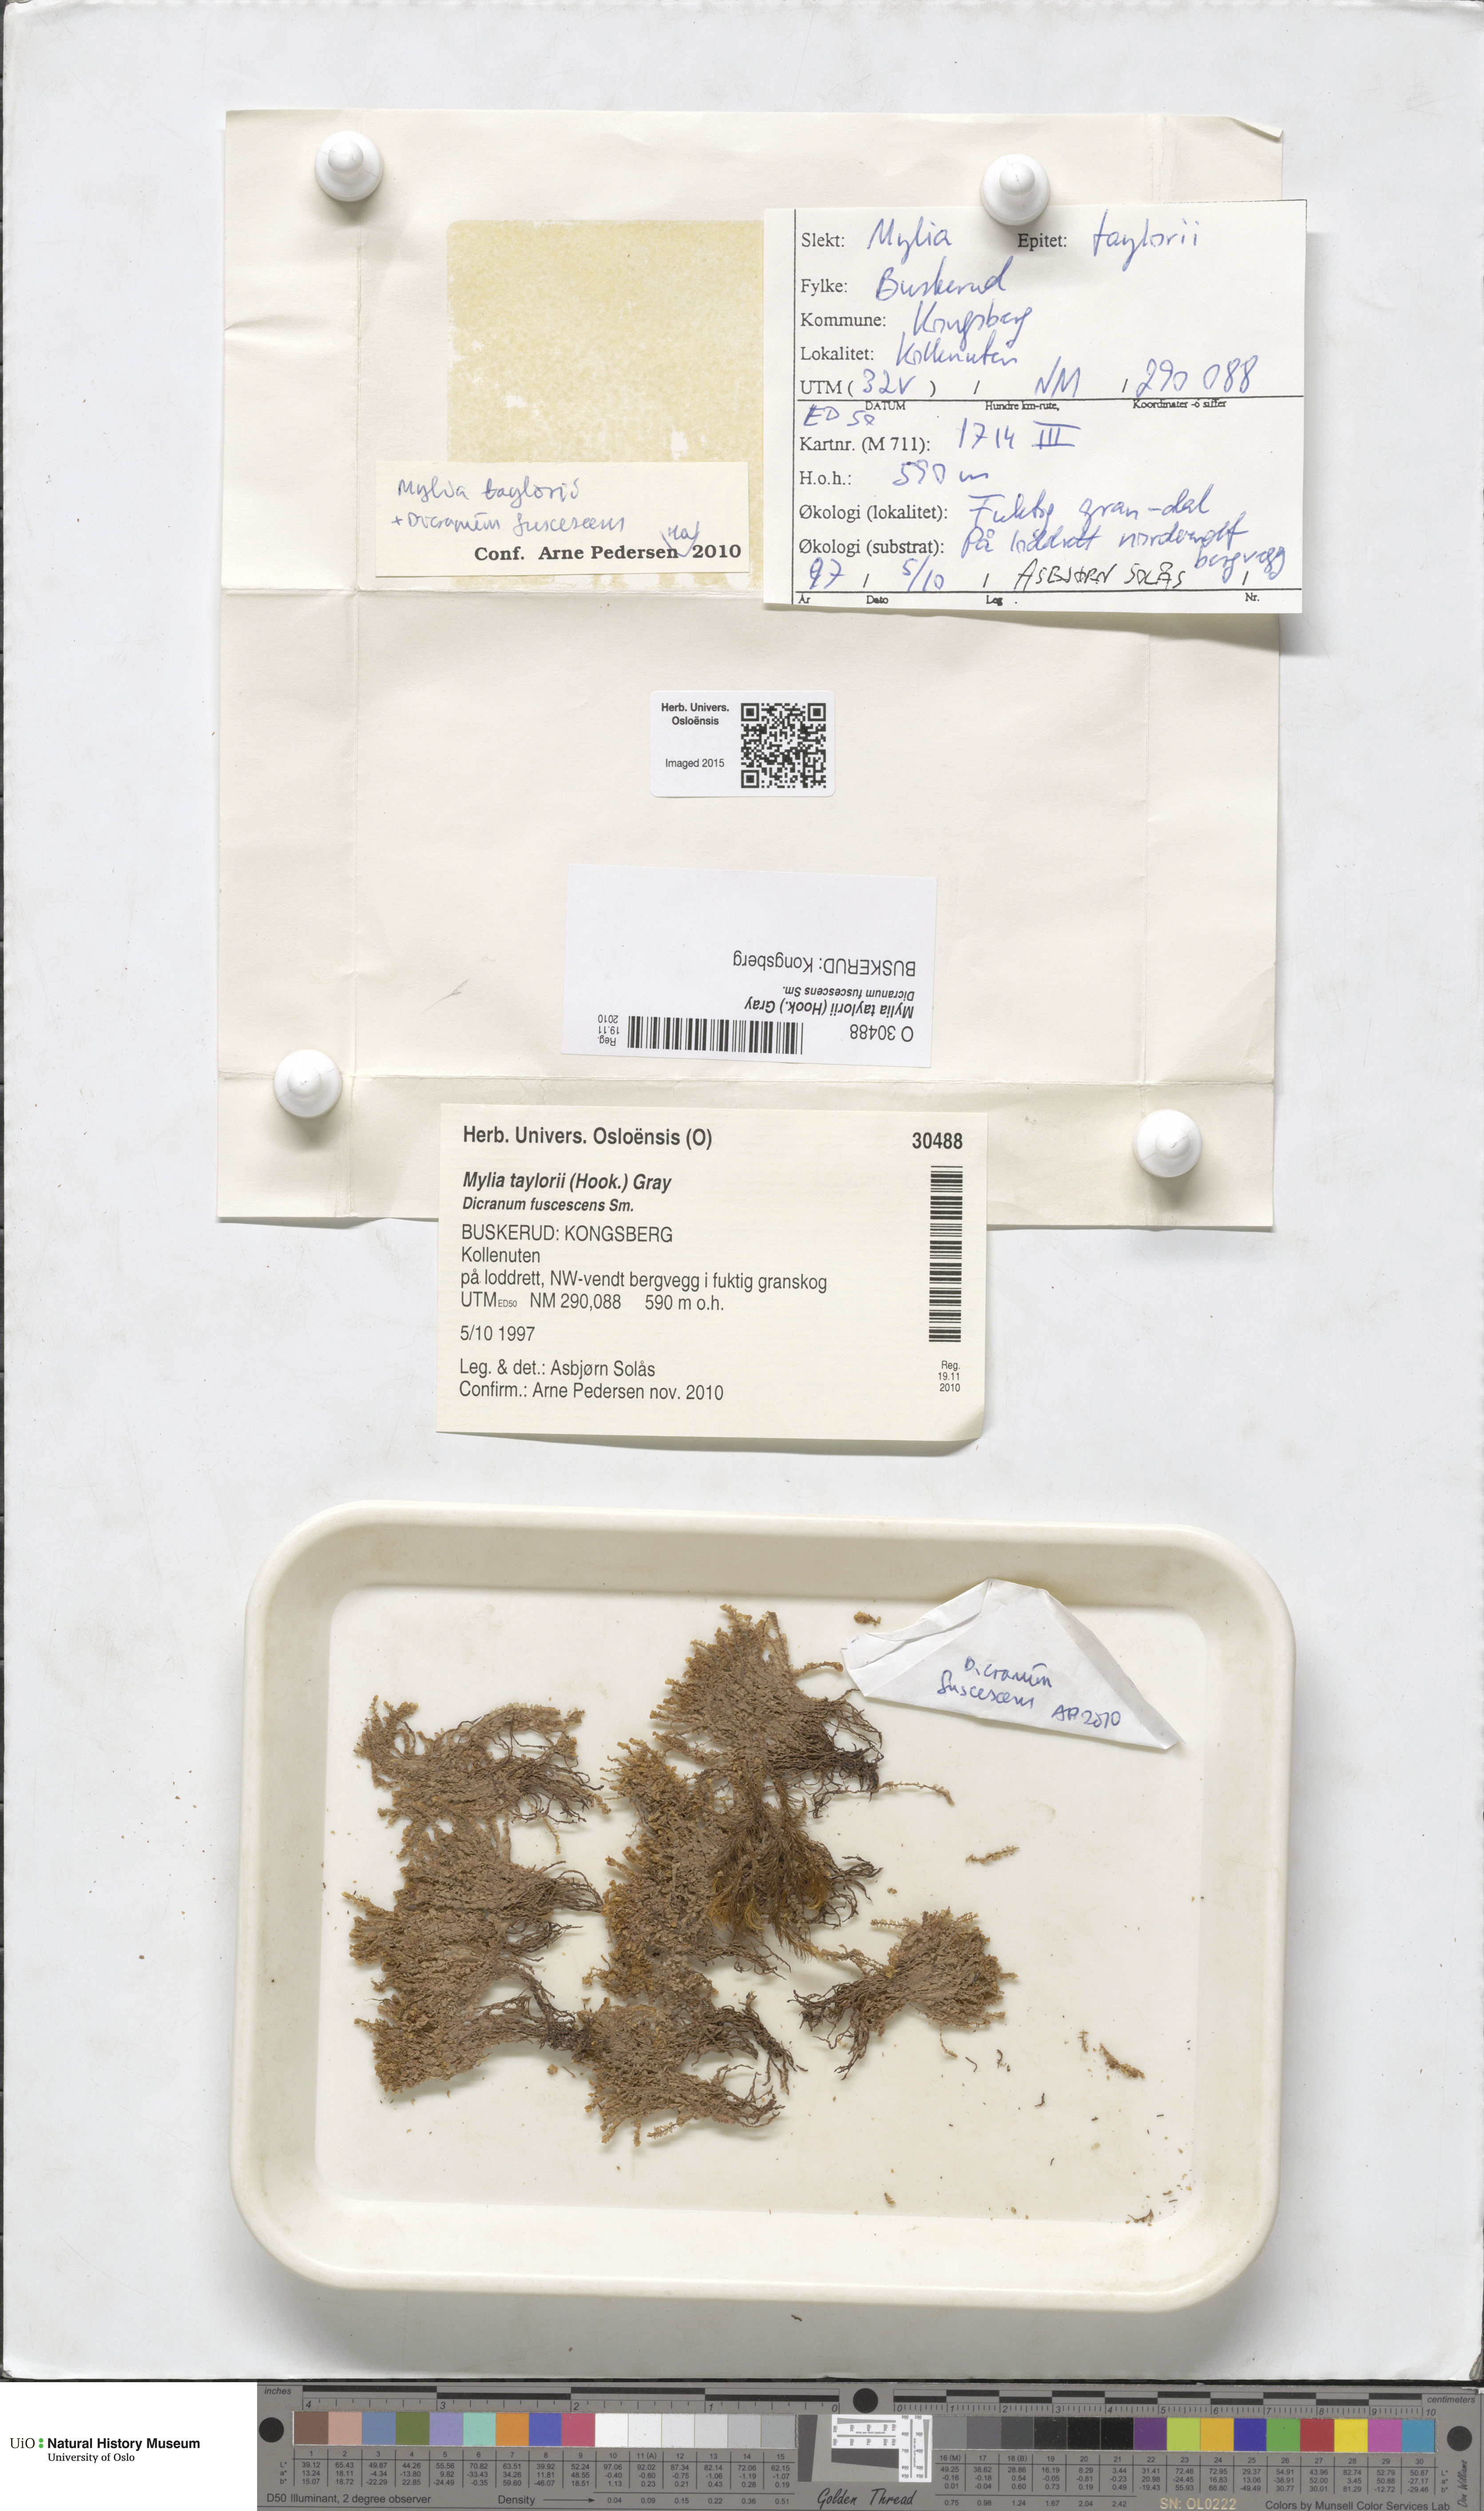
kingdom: Plantae
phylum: Marchantiophyta
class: Jungermanniopsida
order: Jungermanniales
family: Myliaceae
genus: Mylia
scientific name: Mylia taylorii
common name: Taylor s flapwort
